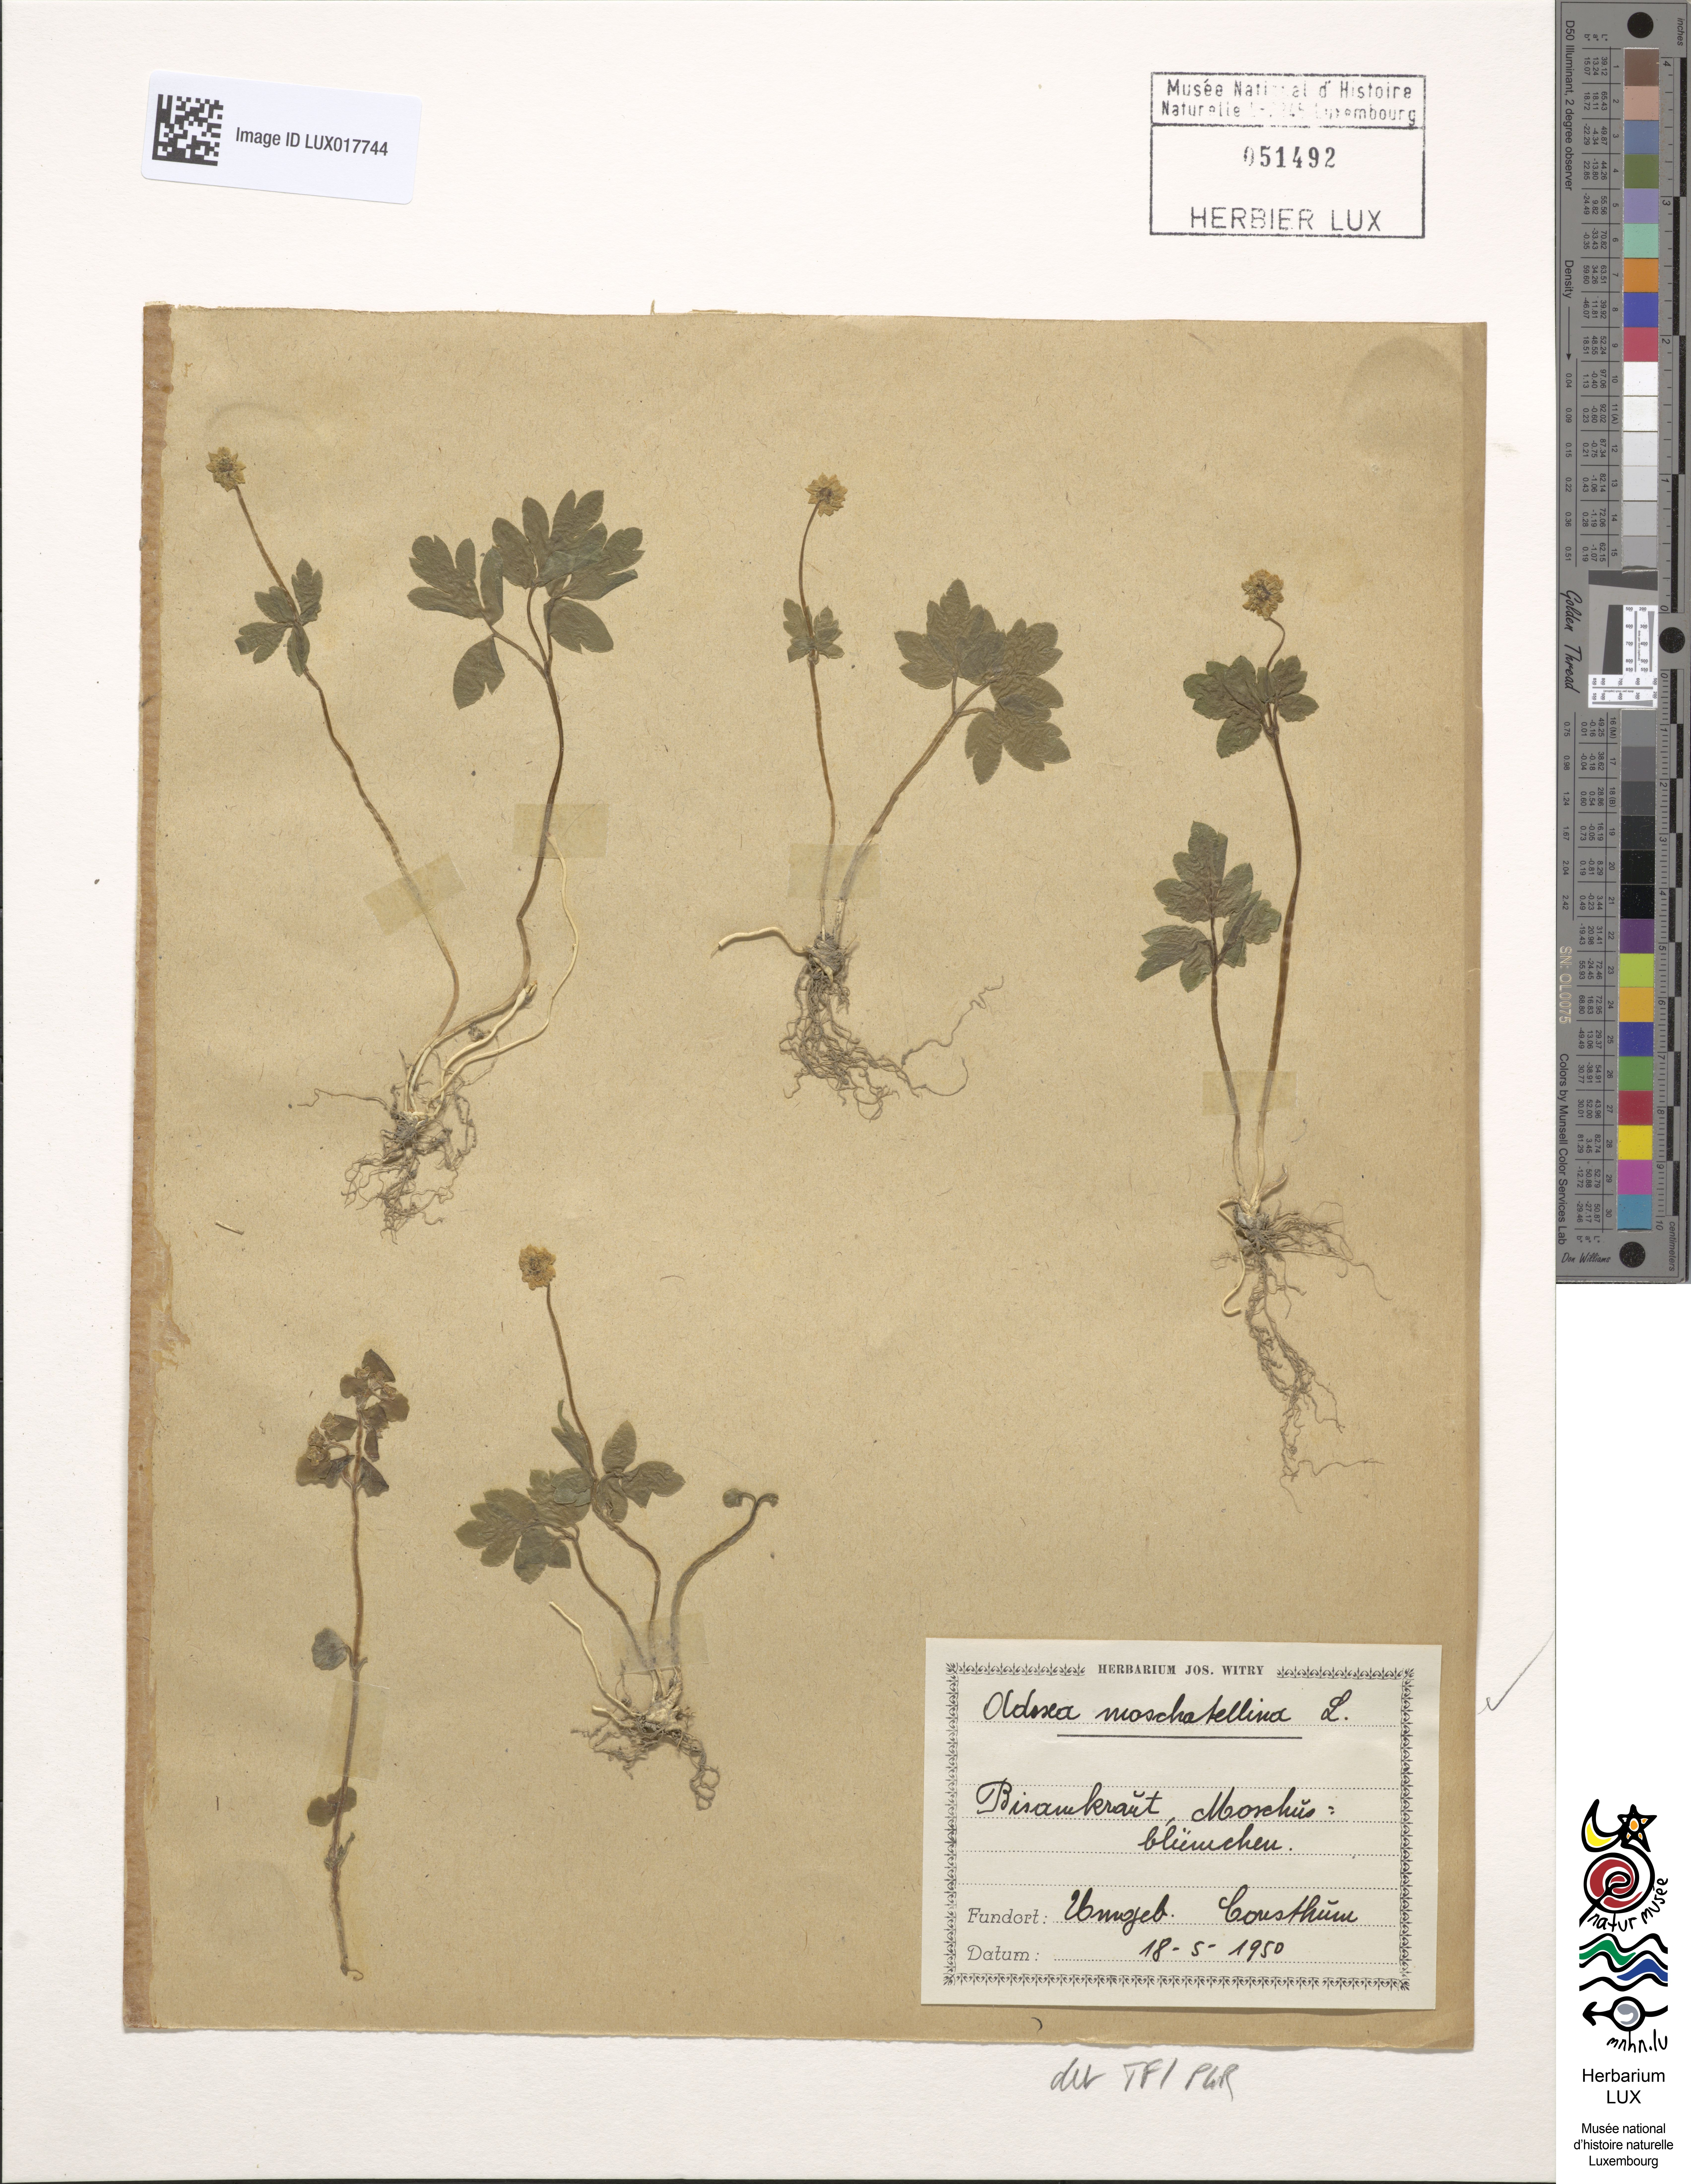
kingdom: Plantae
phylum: Tracheophyta
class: Magnoliopsida
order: Dipsacales
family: Viburnaceae
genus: Adoxa
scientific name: Adoxa moschatellina
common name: Moschatel
